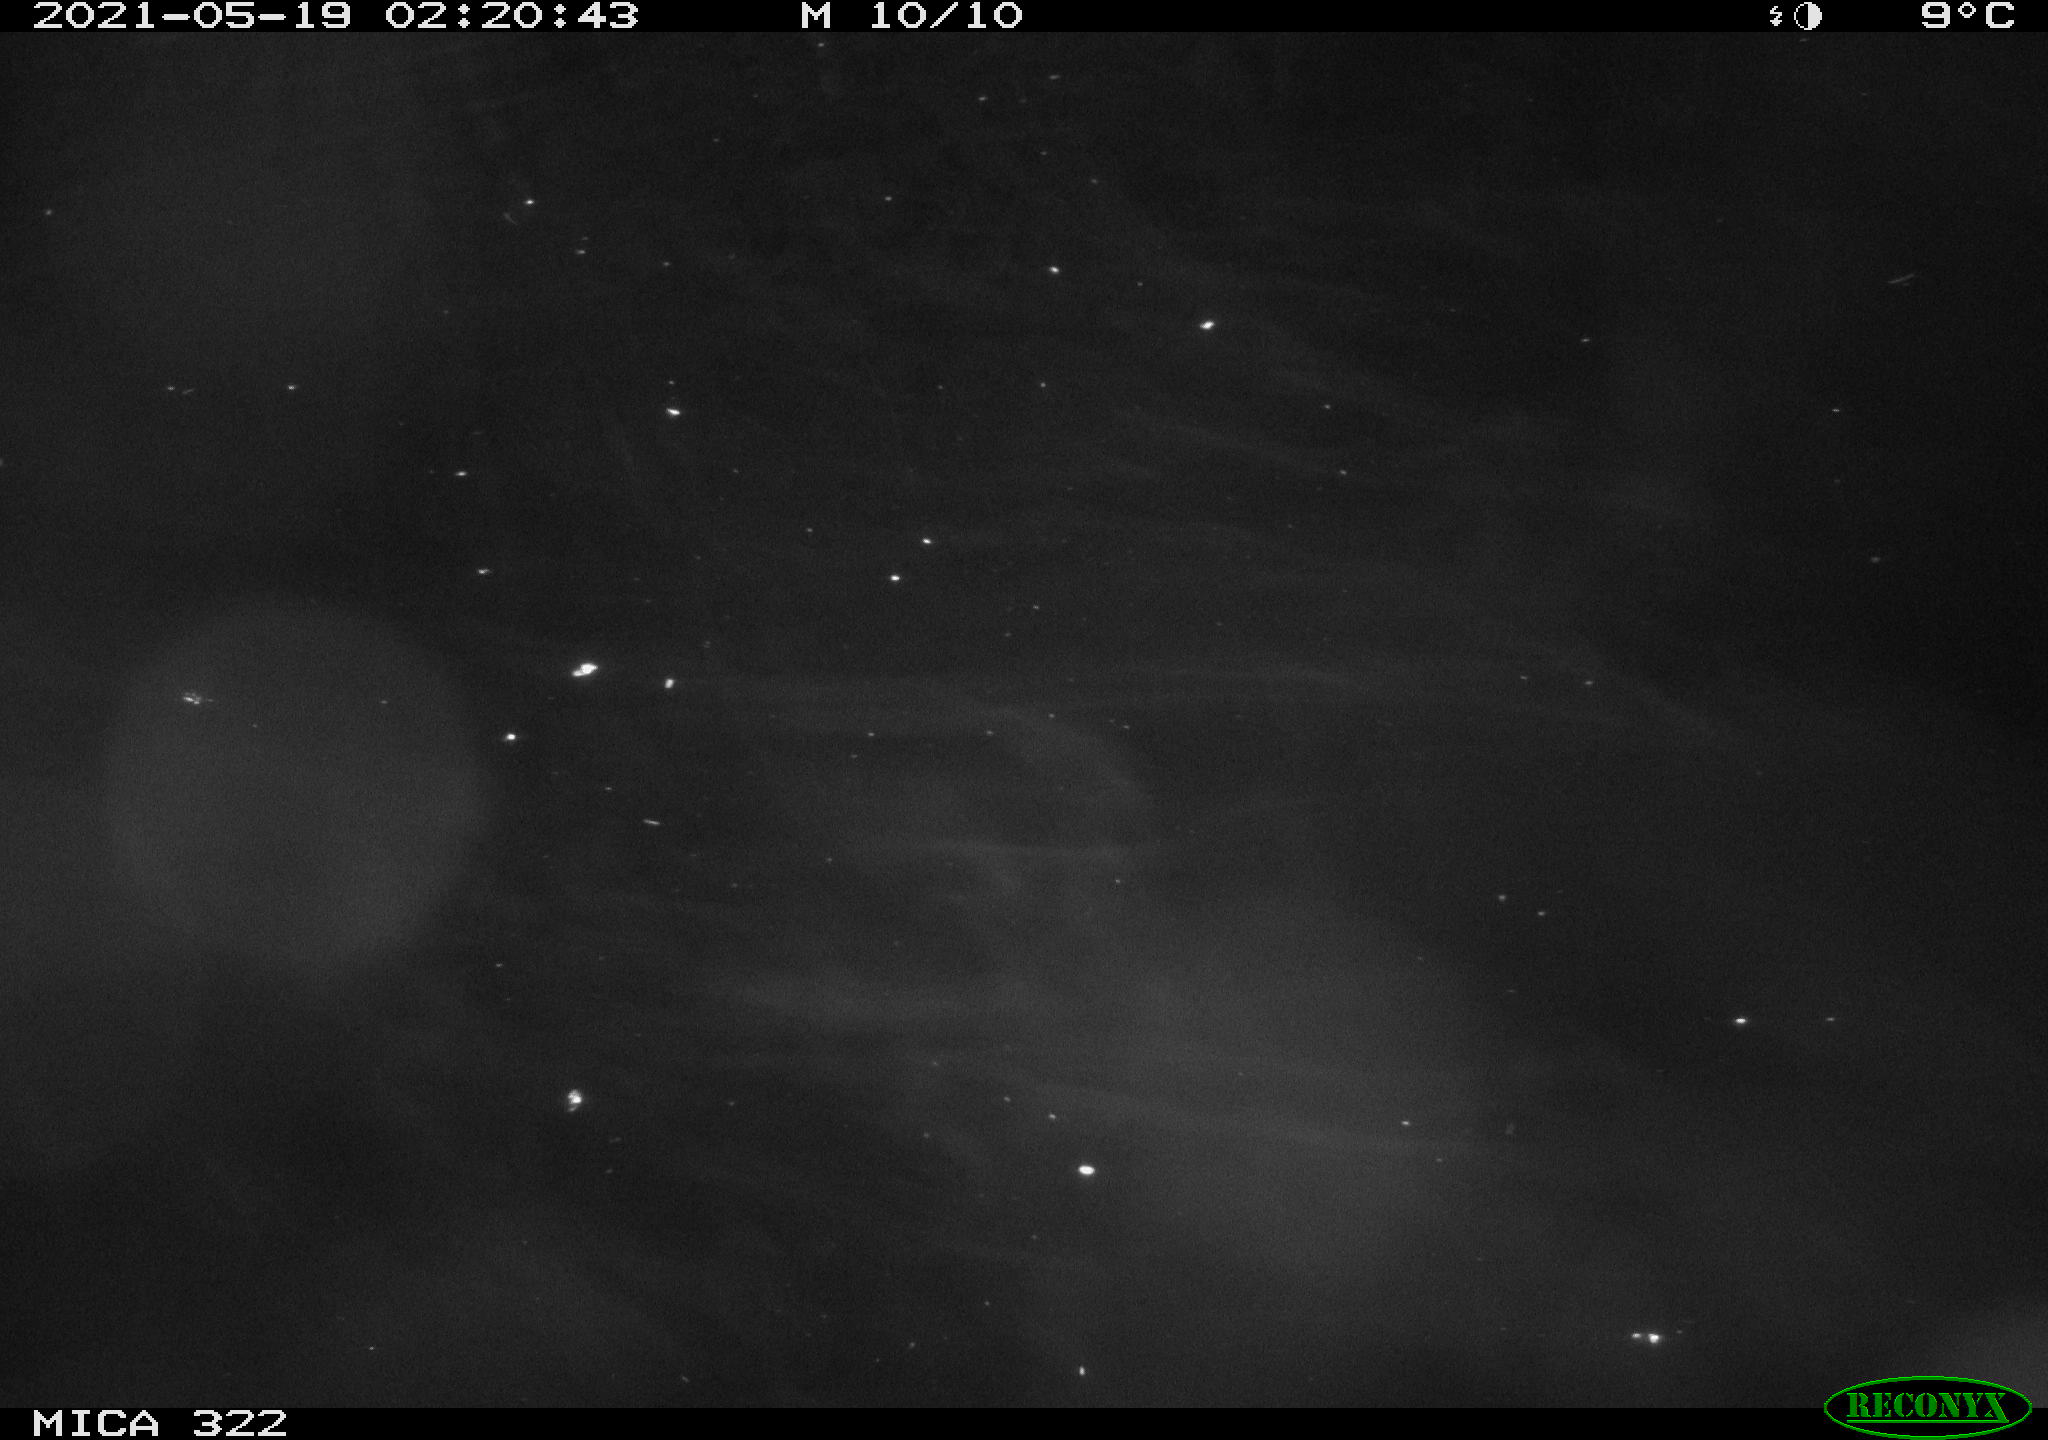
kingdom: Animalia
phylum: Chordata
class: Mammalia
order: Rodentia
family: Muridae
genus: Rattus
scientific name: Rattus norvegicus
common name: Brown rat
